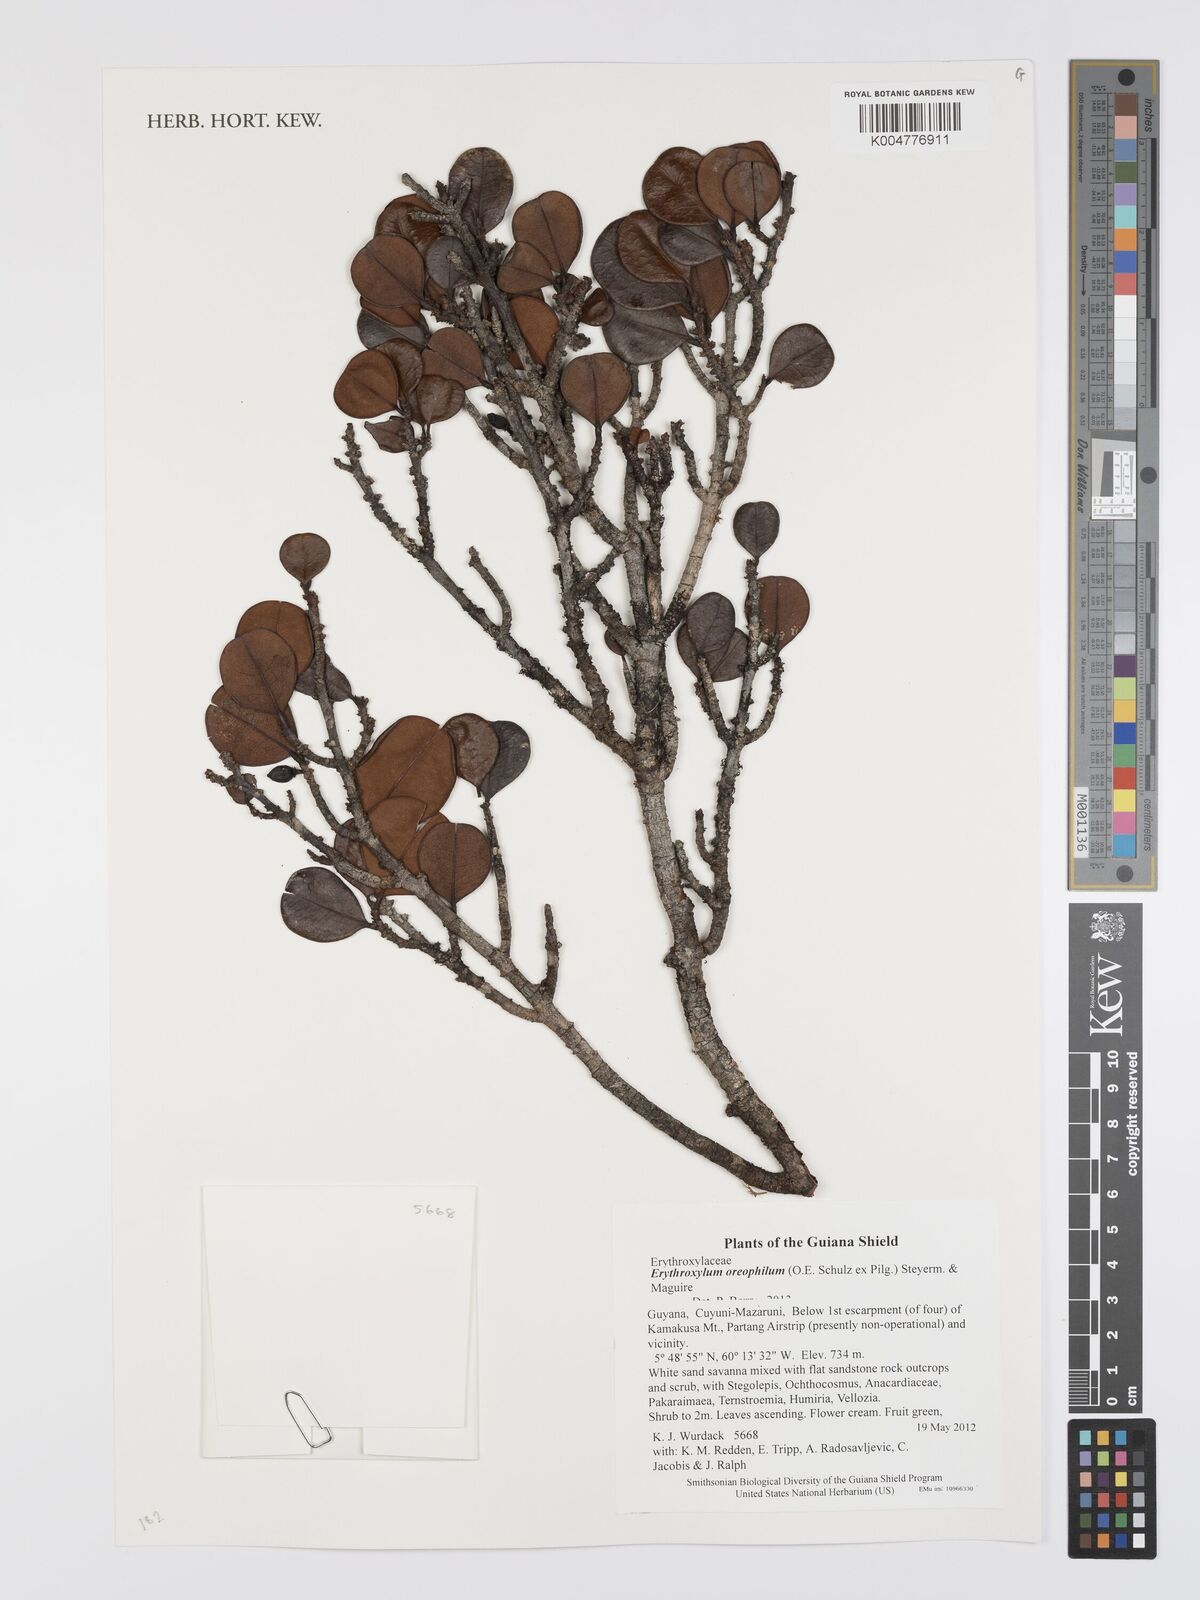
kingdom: Plantae
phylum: Tracheophyta
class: Magnoliopsida
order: Malpighiales
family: Erythroxylaceae
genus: Erythroxylum
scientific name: Erythroxylum oreophilum
